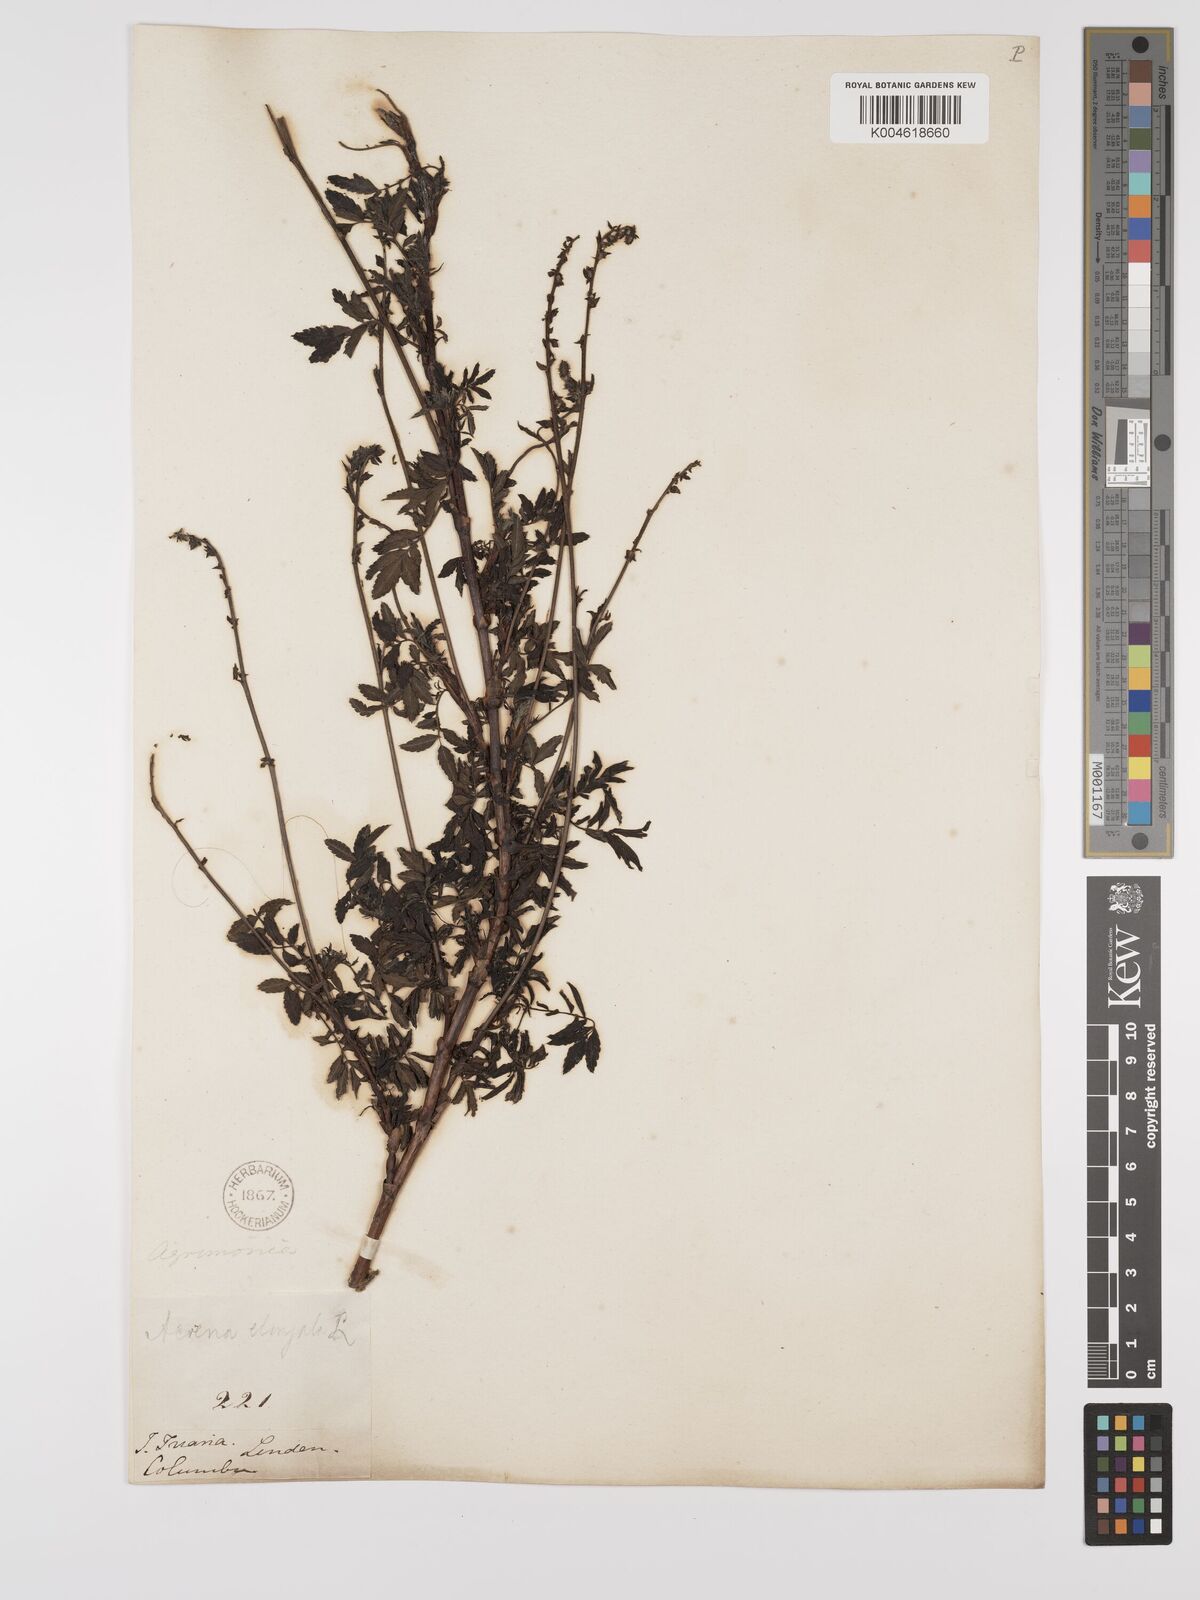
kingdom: Plantae
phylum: Tracheophyta
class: Magnoliopsida
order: Rosales
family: Rosaceae
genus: Acaena
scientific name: Acaena elongata
